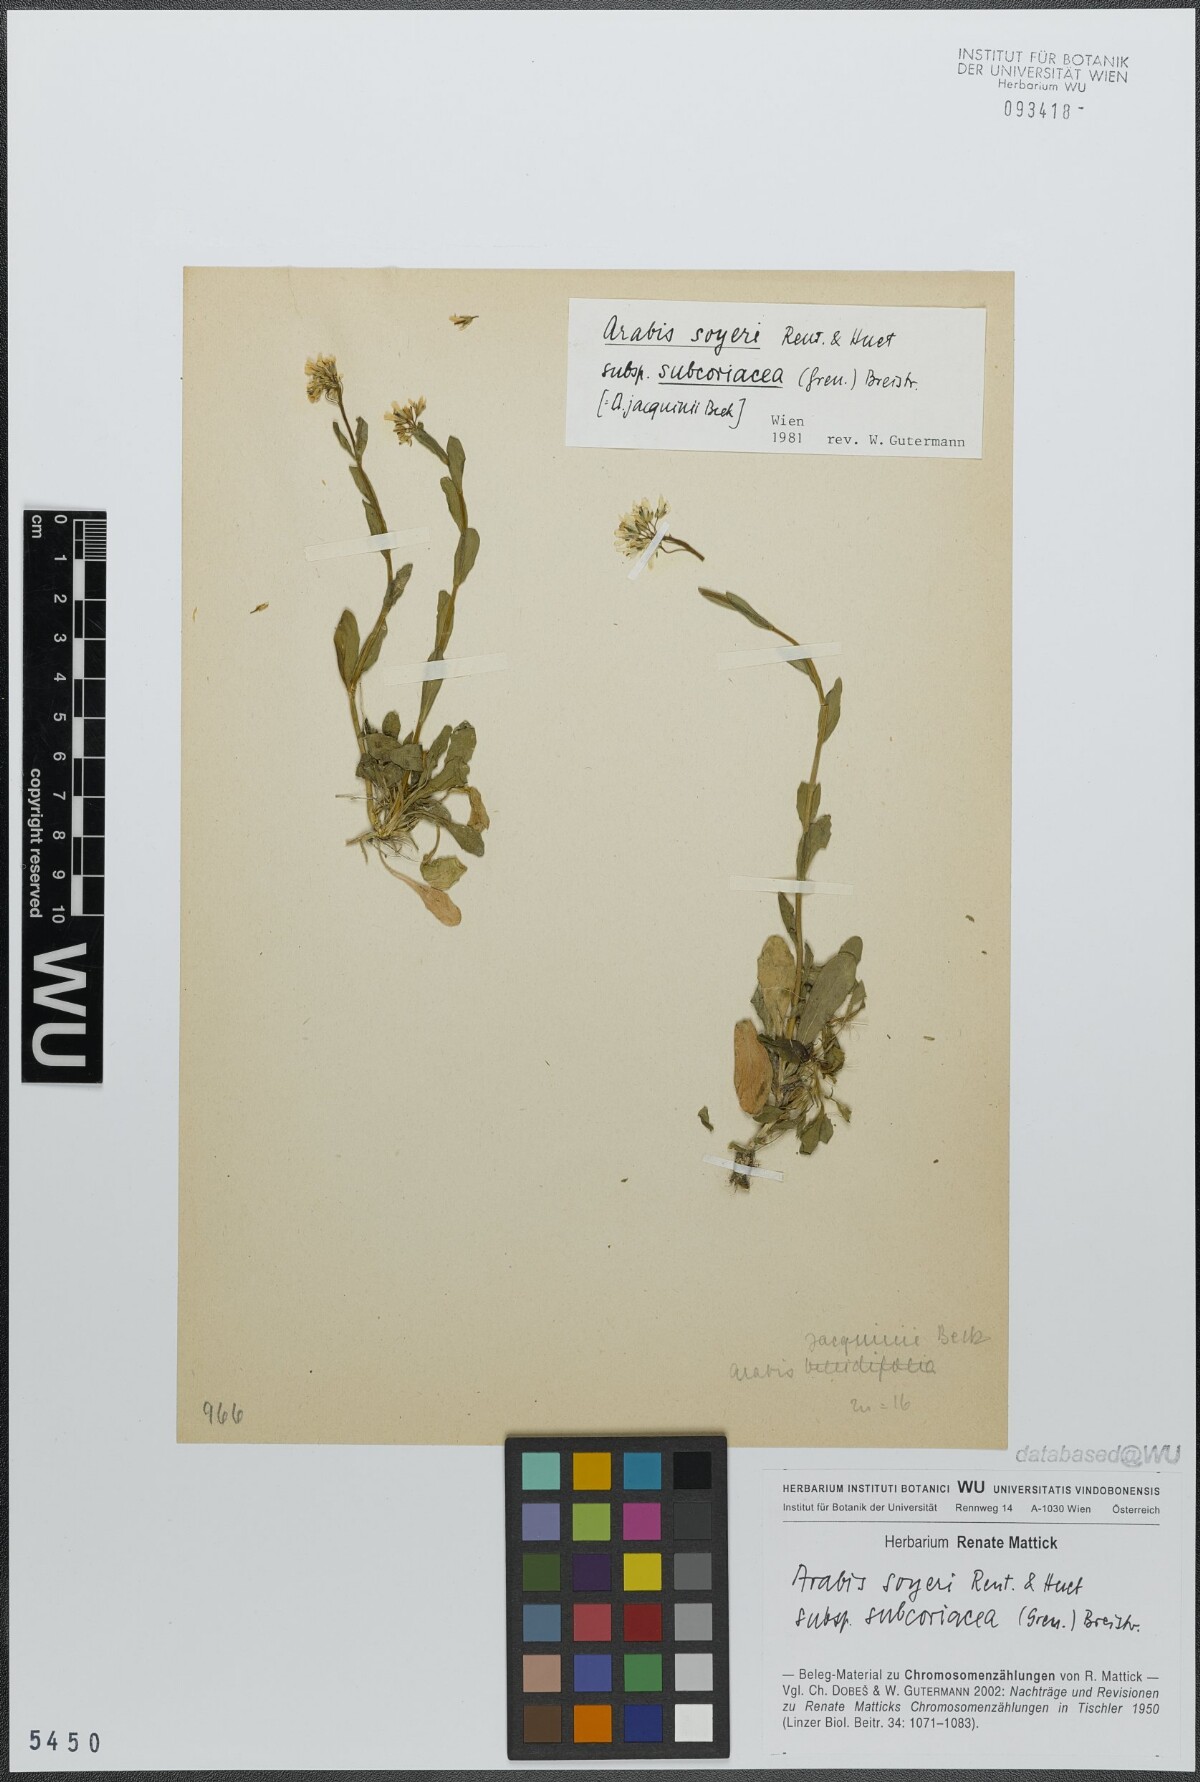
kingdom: Plantae
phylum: Tracheophyta
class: Magnoliopsida
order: Brassicales
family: Brassicaceae
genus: Arabis
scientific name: Arabis soyeri
